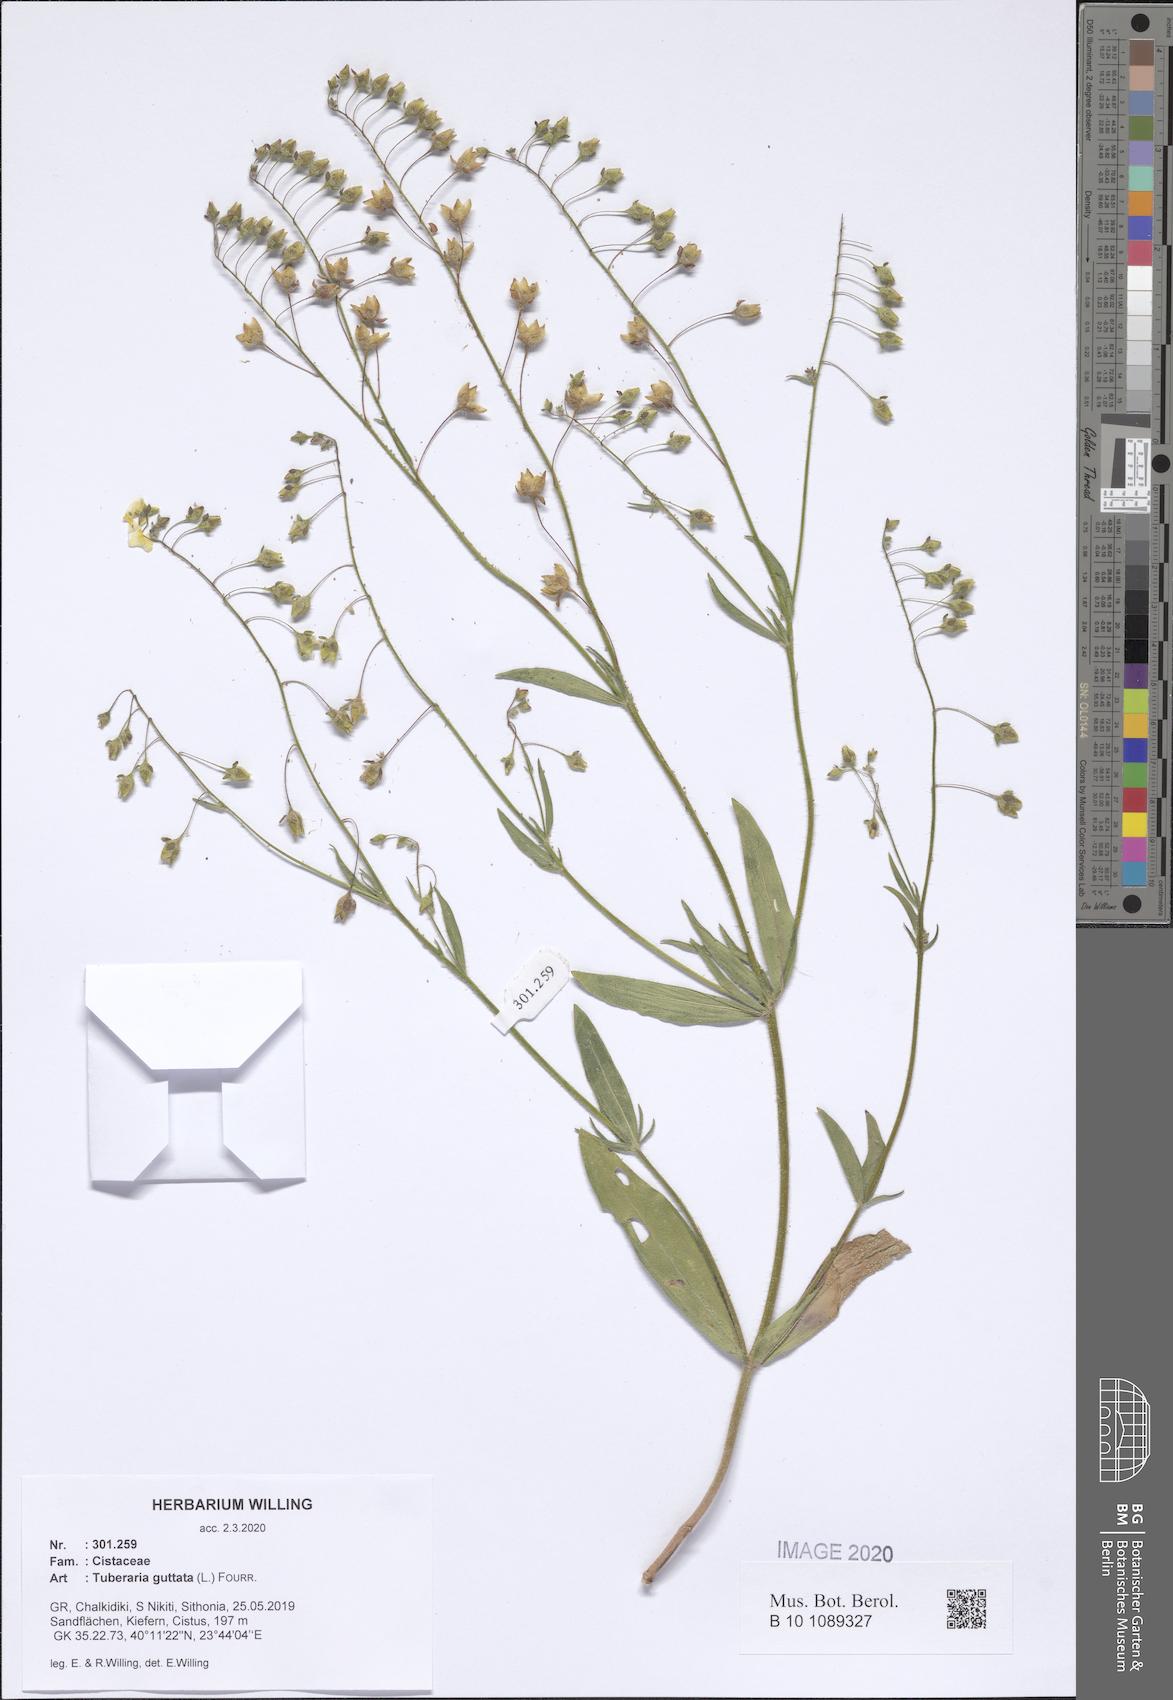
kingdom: Plantae
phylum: Tracheophyta
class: Magnoliopsida
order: Malvales
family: Cistaceae
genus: Tuberaria
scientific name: Tuberaria guttata
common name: Spotted rock-rose
